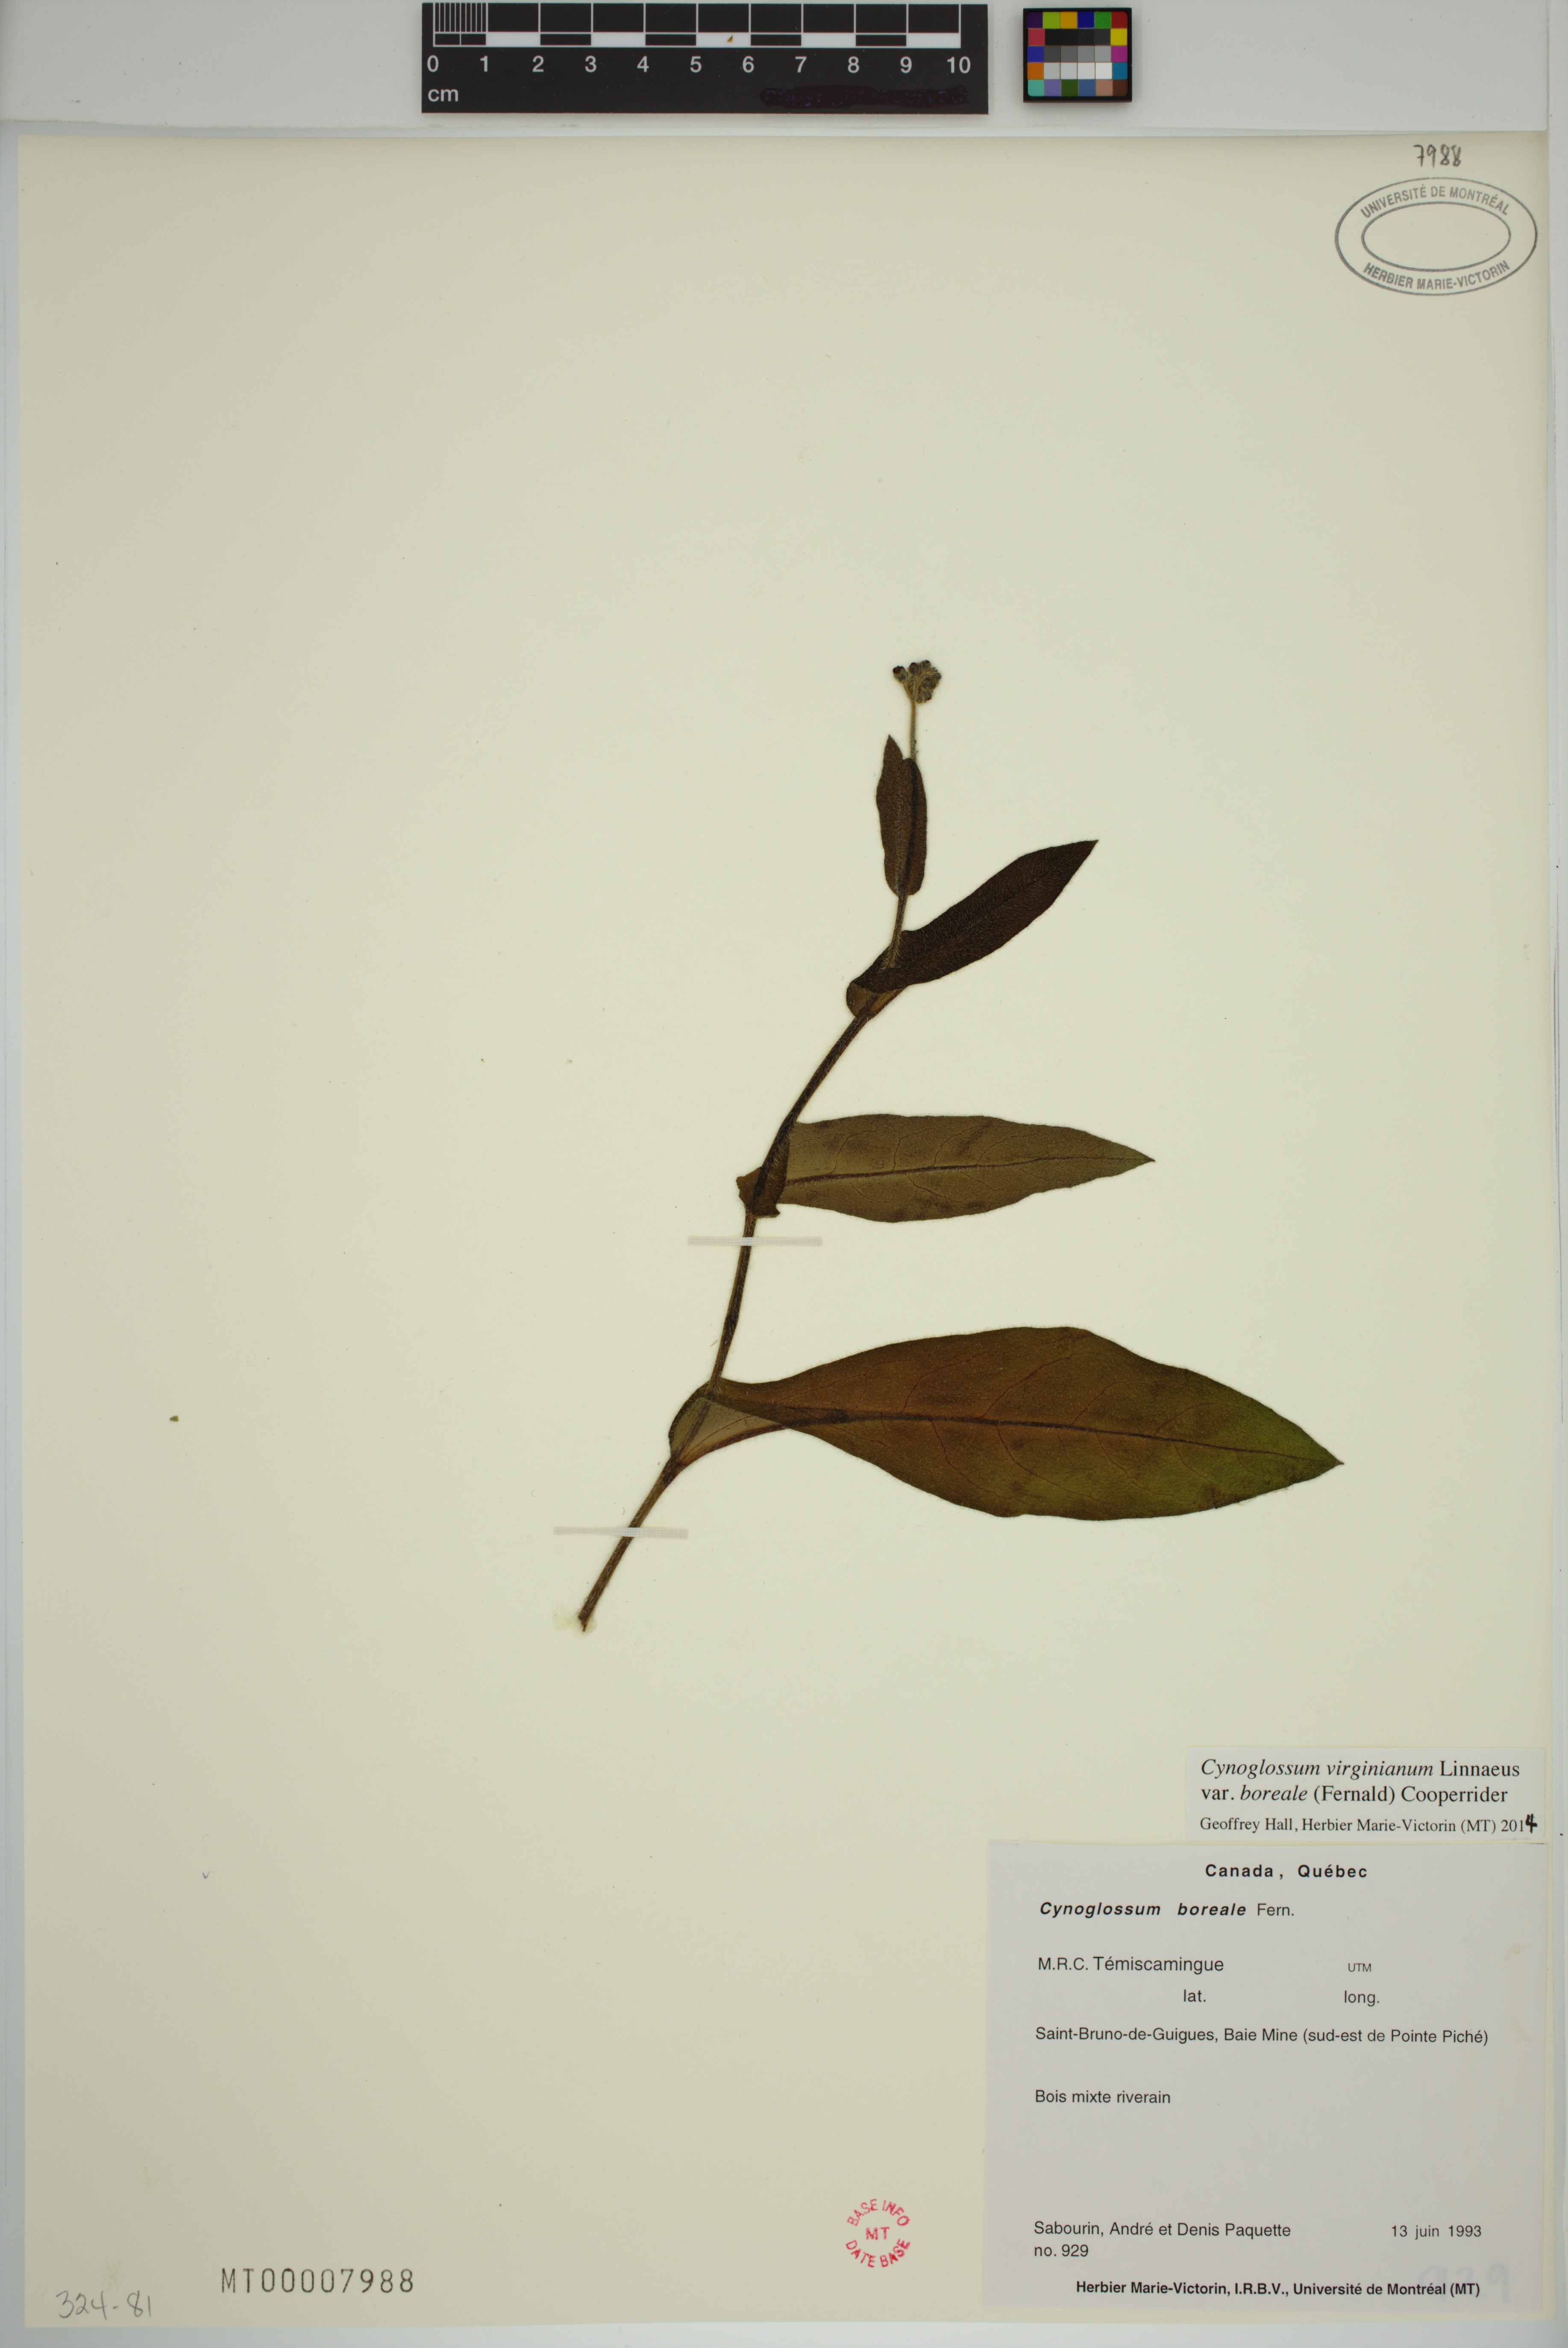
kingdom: Plantae
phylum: Tracheophyta
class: Magnoliopsida
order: Boraginales
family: Boraginaceae
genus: Andersonglossum
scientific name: Andersonglossum boreale
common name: Northern hound's-tongue
